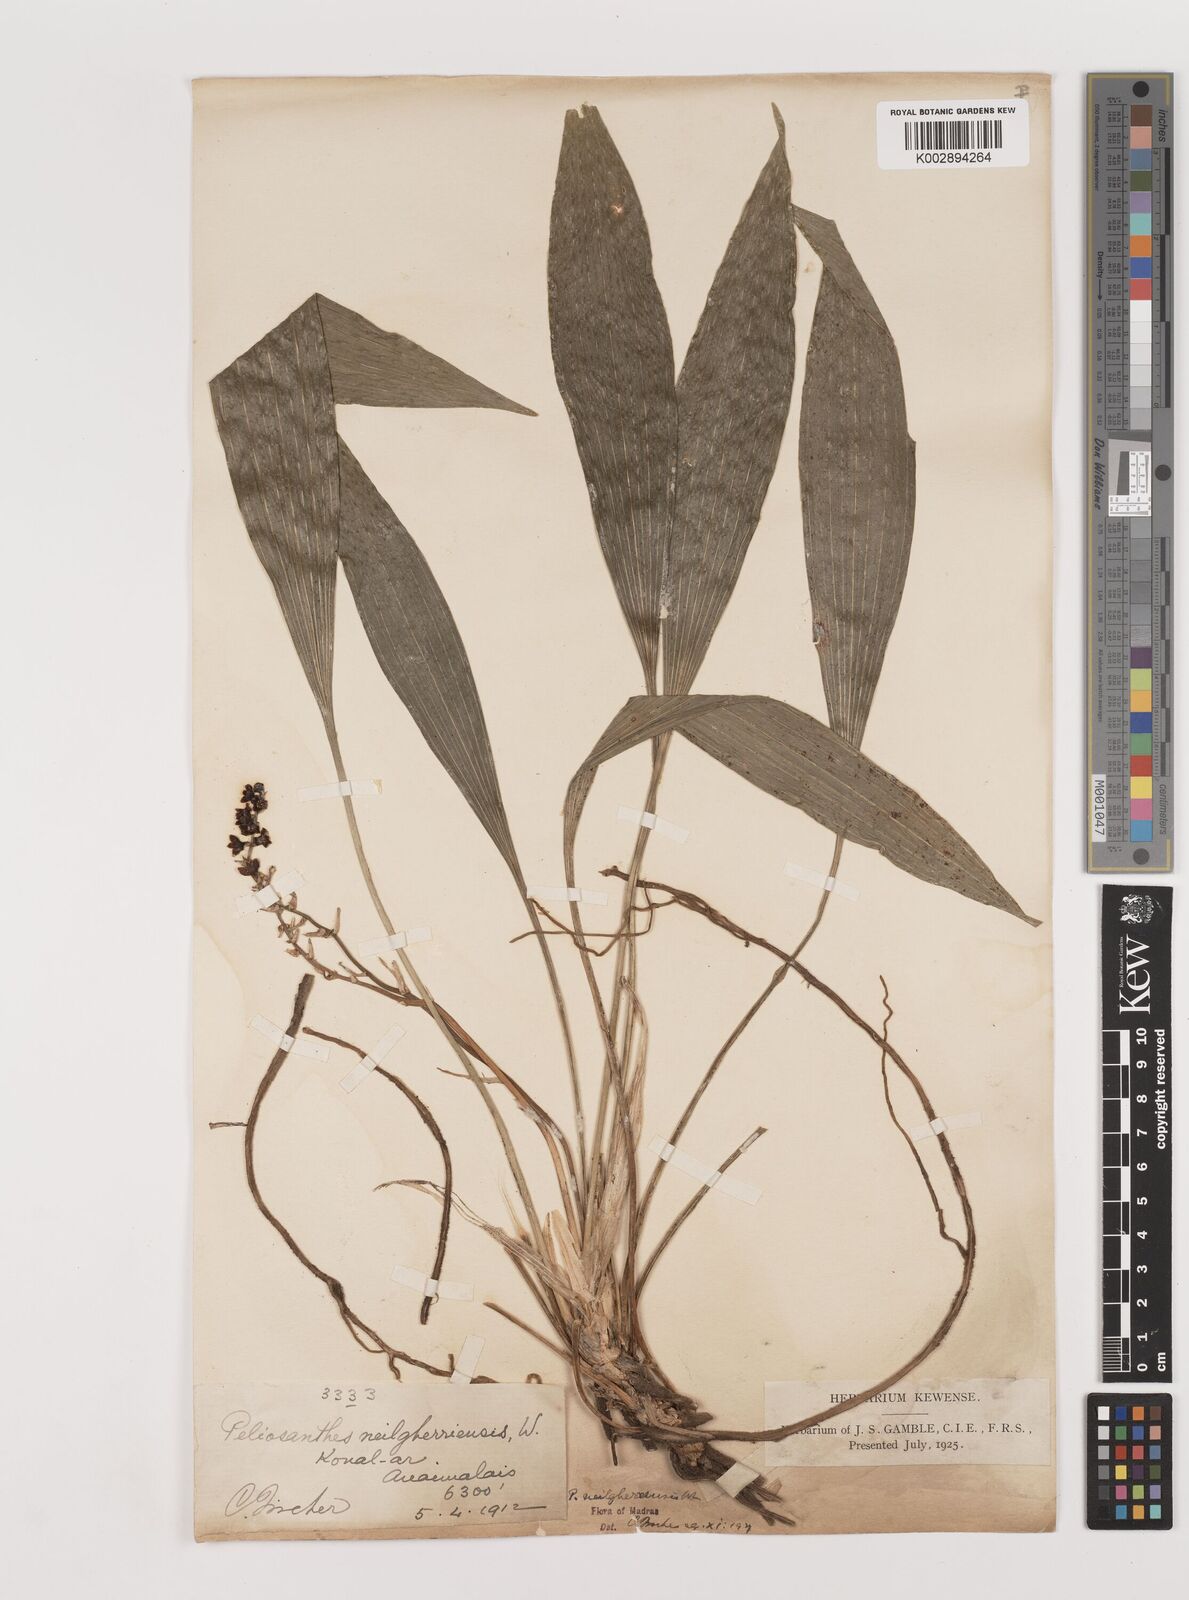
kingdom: Plantae
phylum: Tracheophyta
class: Liliopsida
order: Asparagales
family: Asparagaceae
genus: Peliosanthes
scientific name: Peliosanthes teta
